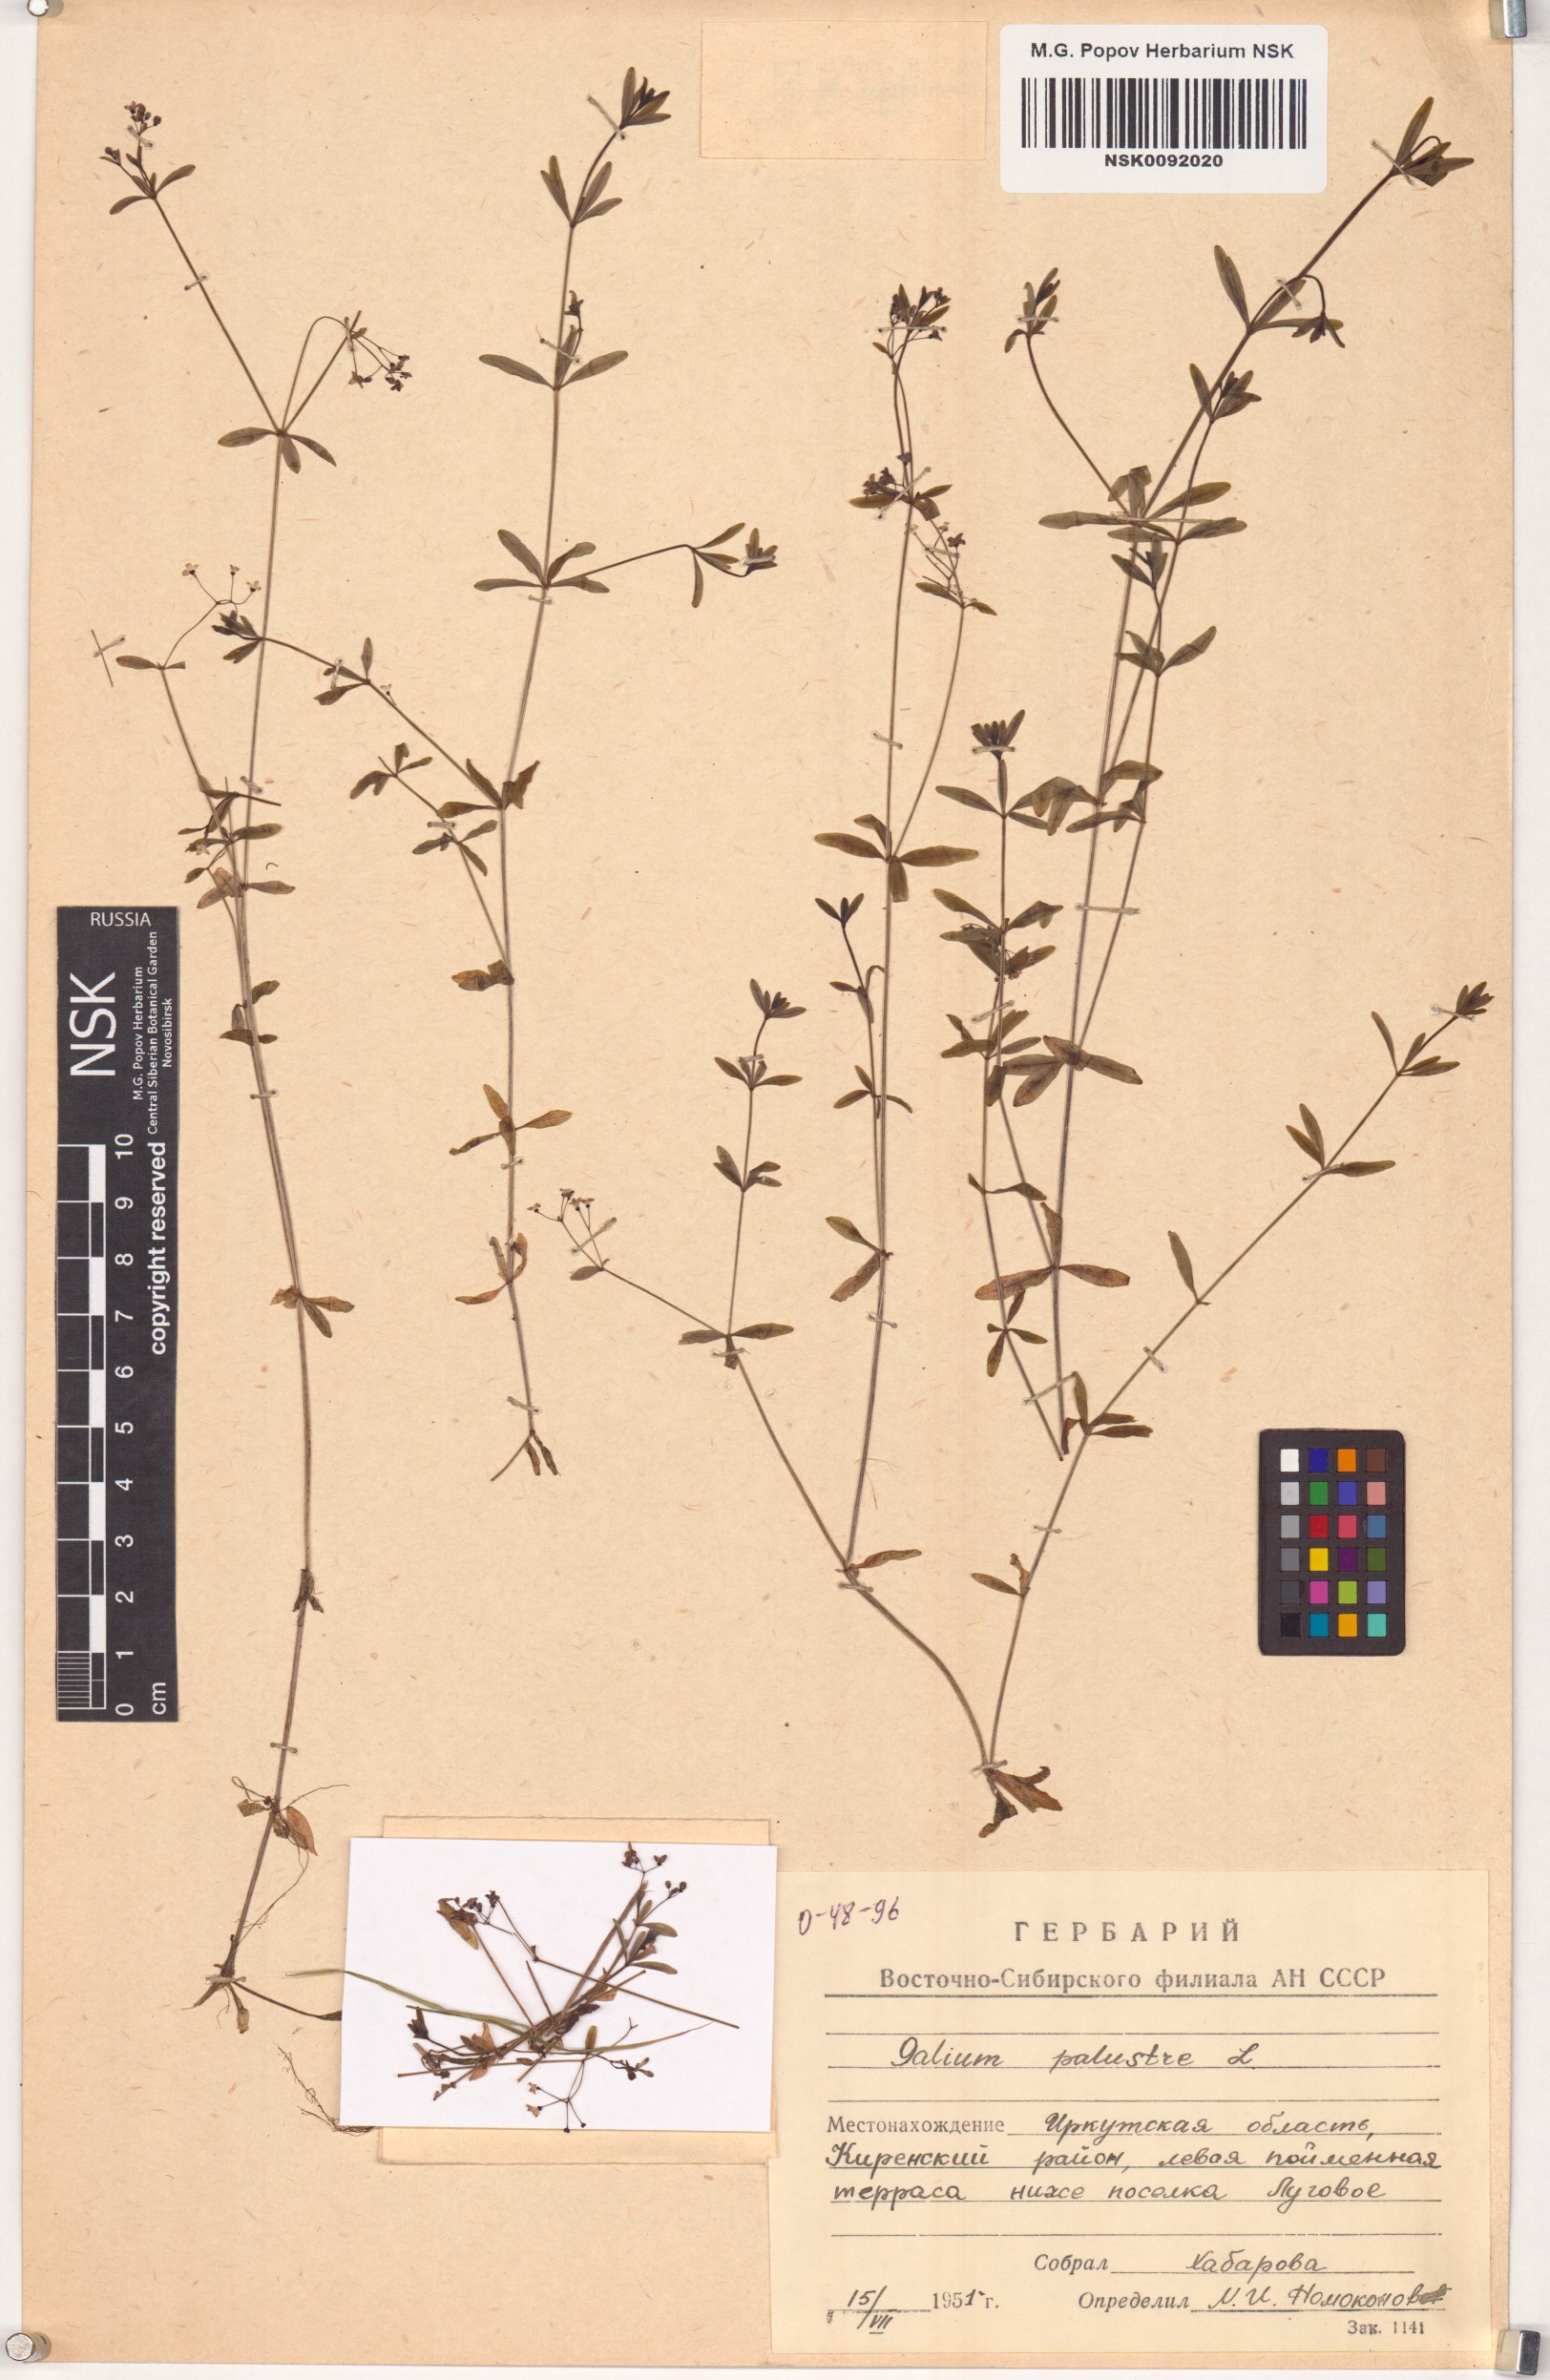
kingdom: Plantae
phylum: Tracheophyta
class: Magnoliopsida
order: Gentianales
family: Rubiaceae
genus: Galium
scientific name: Galium palustre
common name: Common marsh-bedstraw
